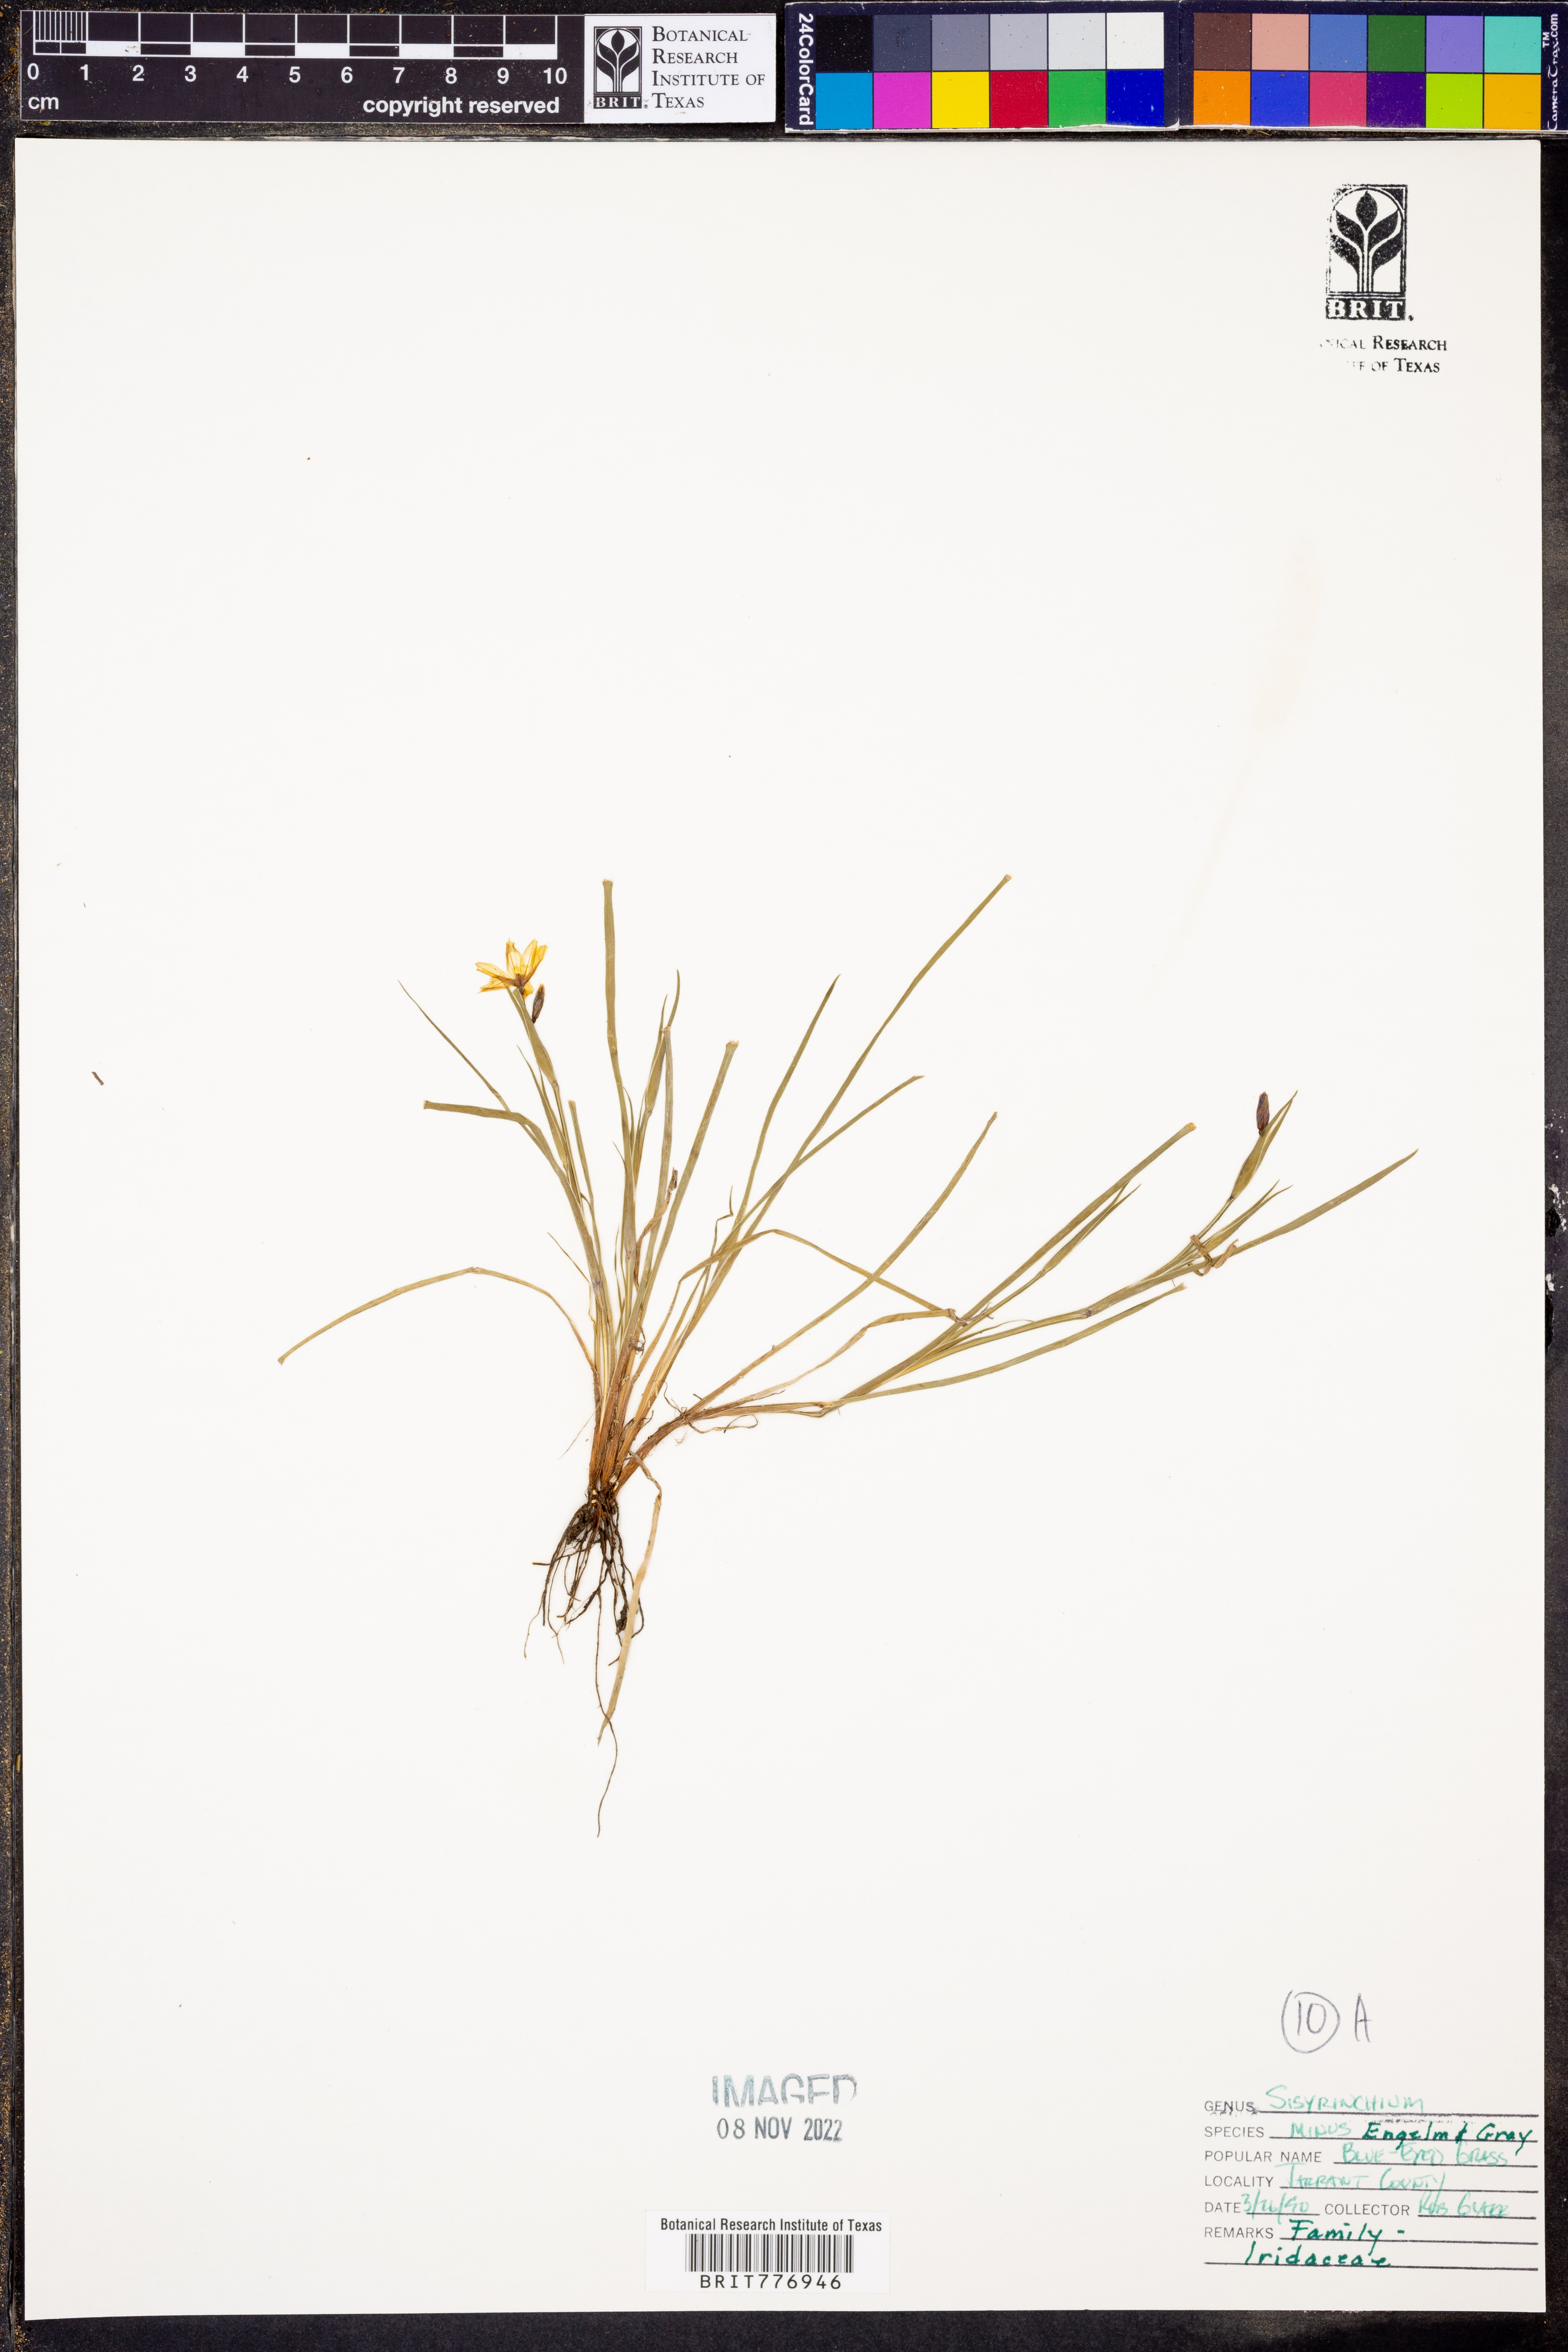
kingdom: Plantae
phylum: Tracheophyta
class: Liliopsida
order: Asparagales
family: Iridaceae
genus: Sisyrinchium
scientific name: Sisyrinchium minus
